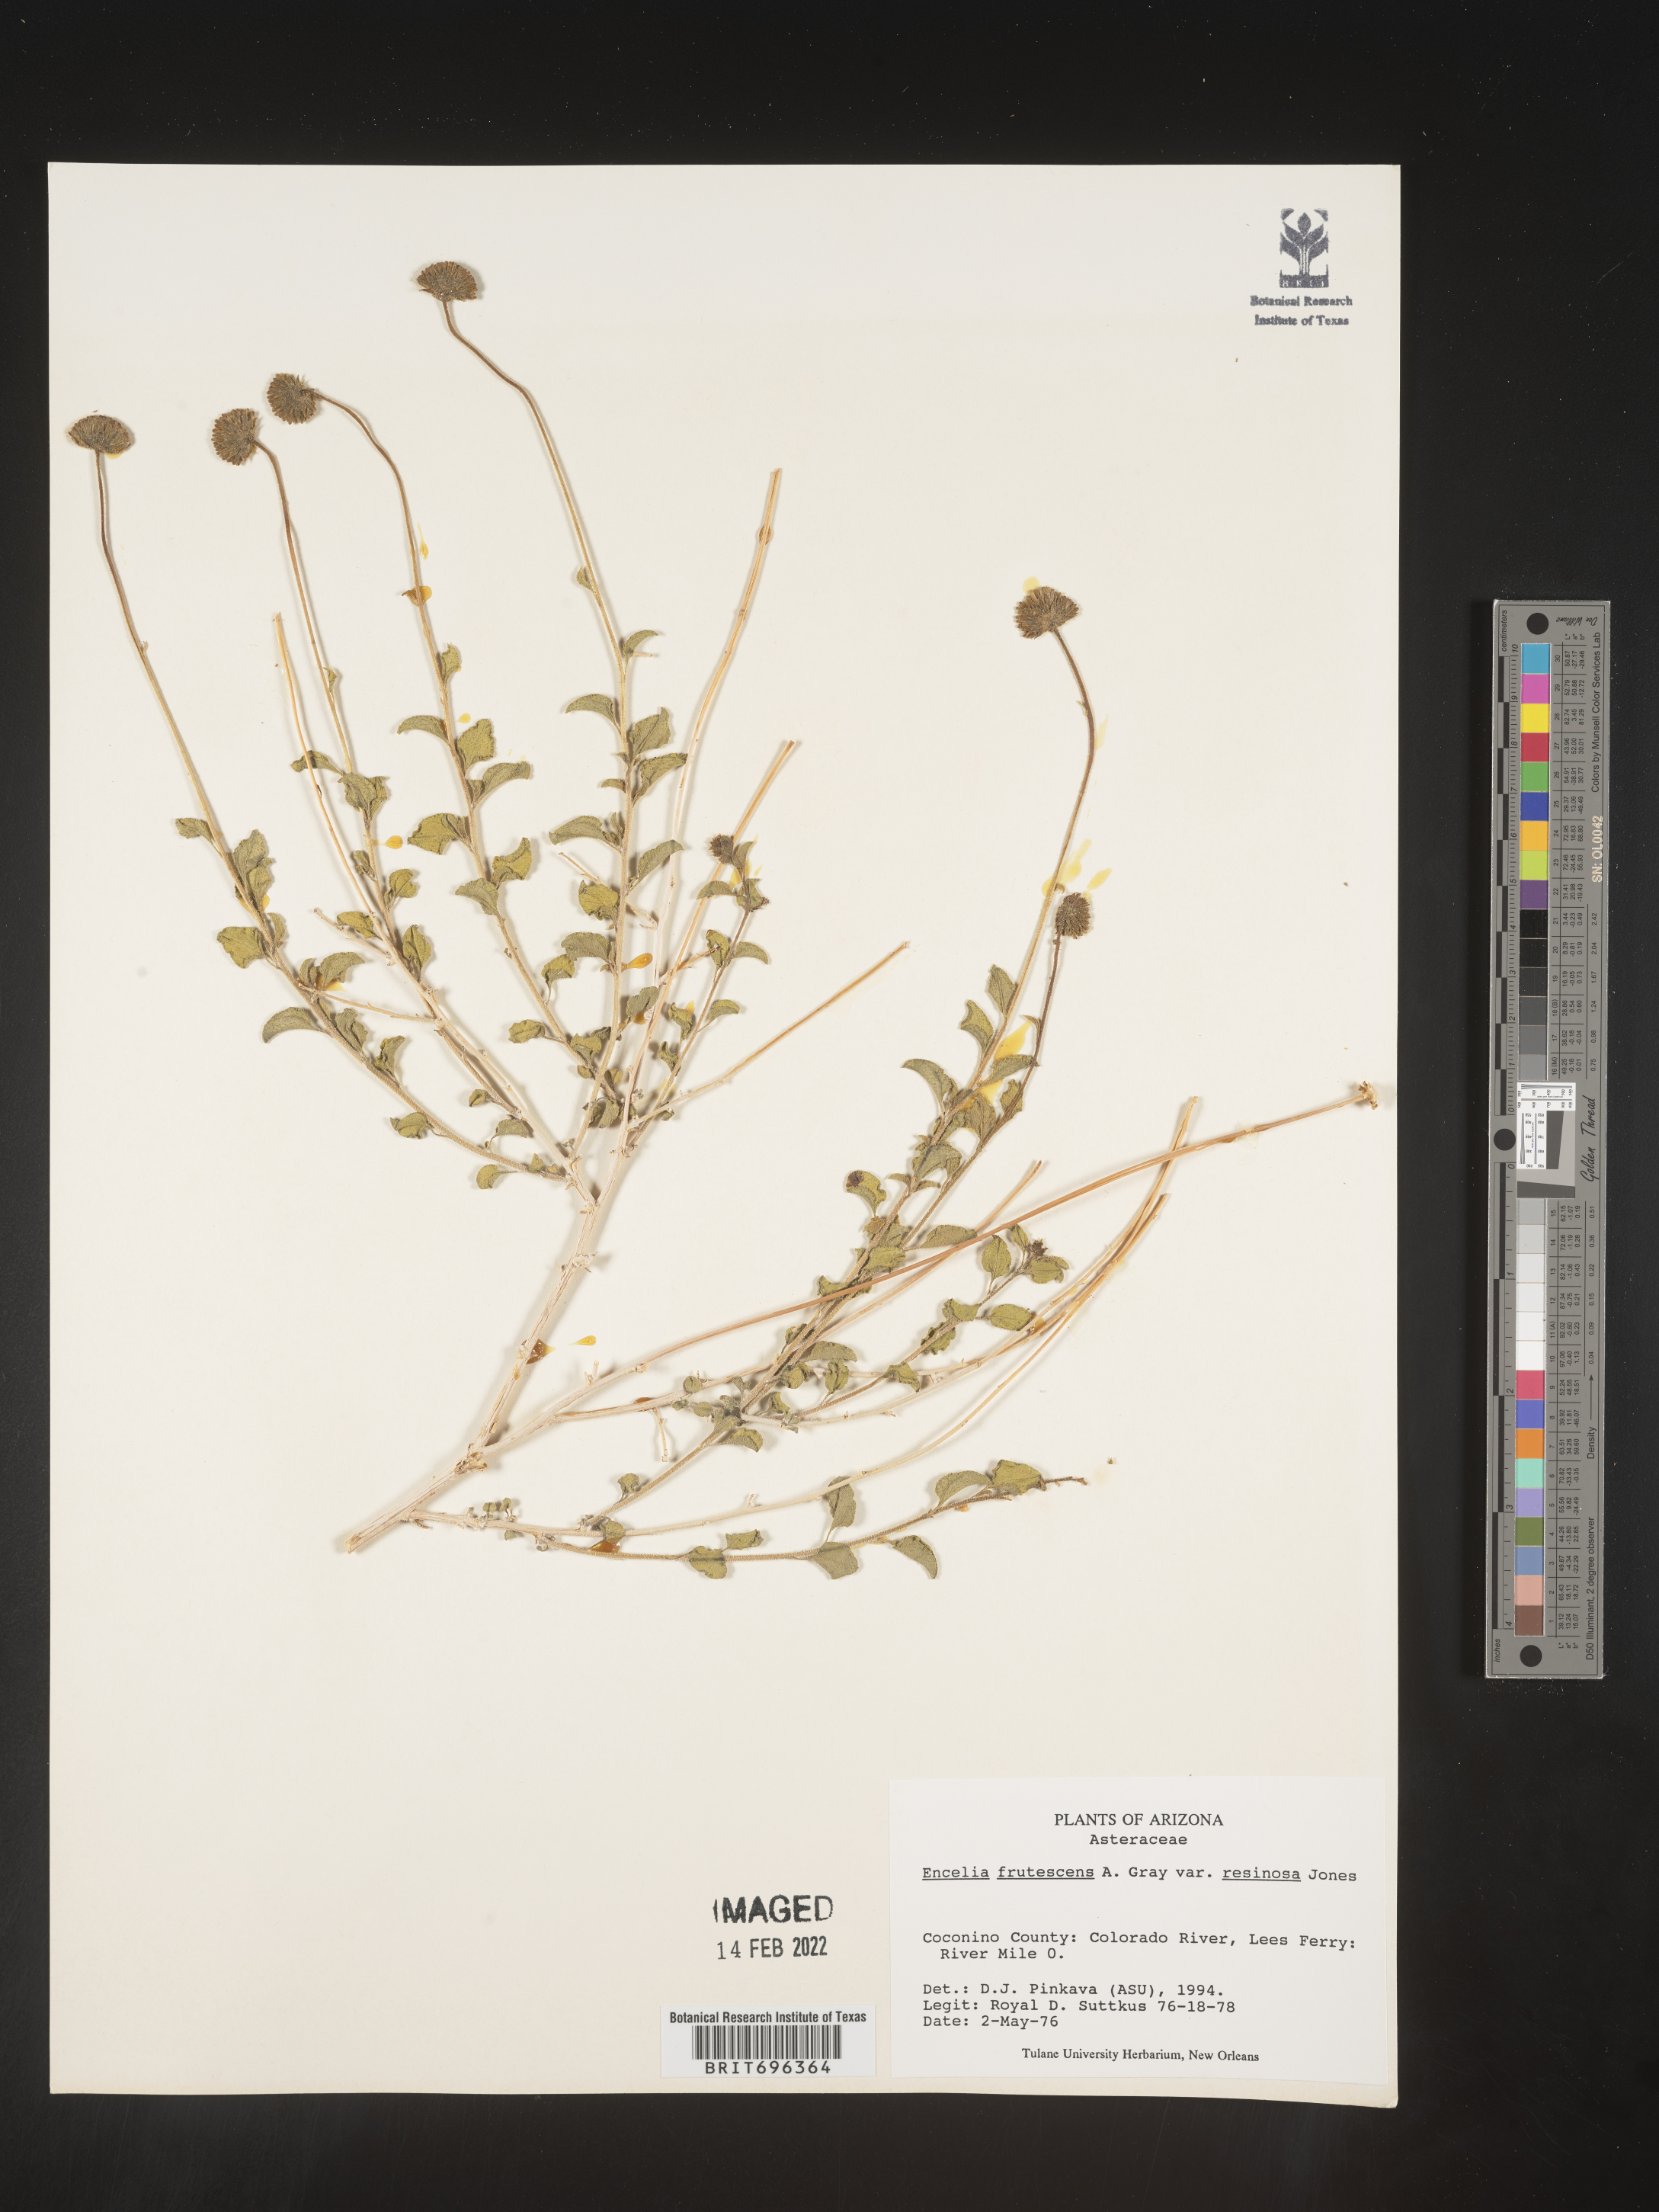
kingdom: Plantae
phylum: Tracheophyta
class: Magnoliopsida
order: Asterales
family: Asteraceae
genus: Encelia
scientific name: Encelia frutescens
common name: Bush encelia
